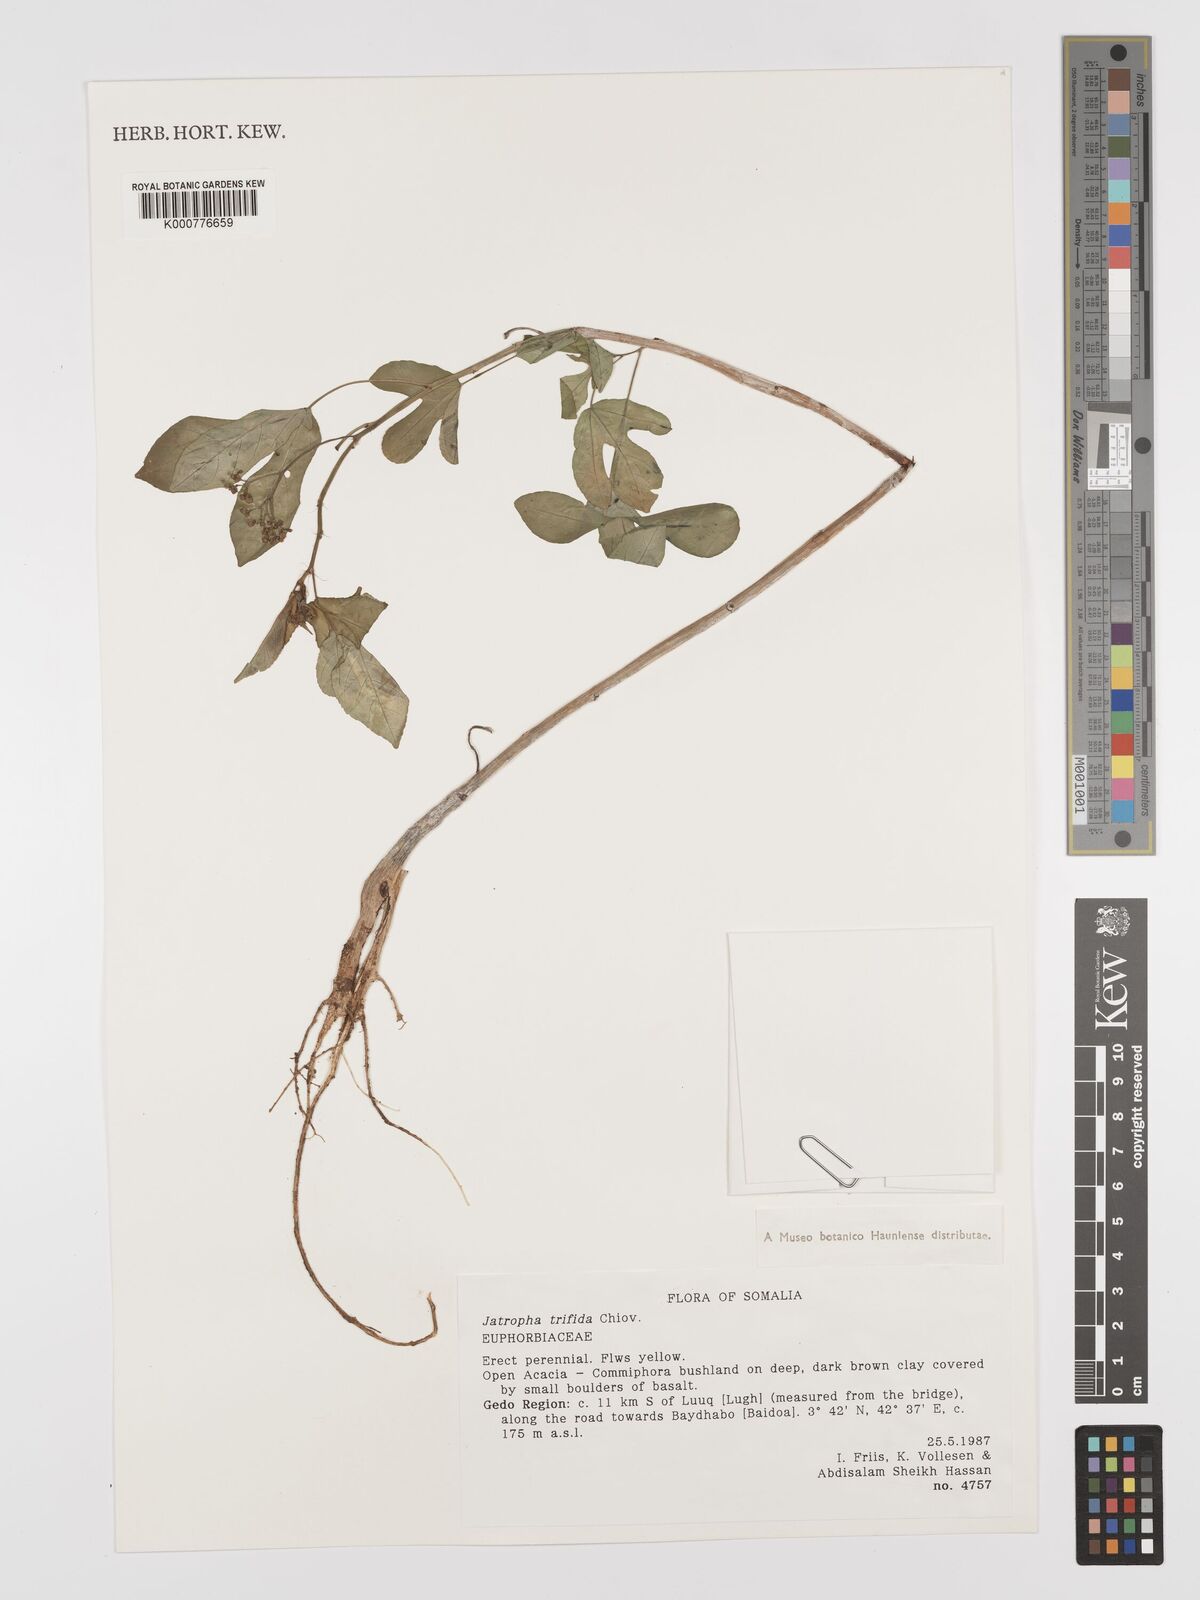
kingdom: Plantae
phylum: Tracheophyta
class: Magnoliopsida
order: Malpighiales
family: Euphorbiaceae
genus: Jatropha
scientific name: Jatropha trifida
